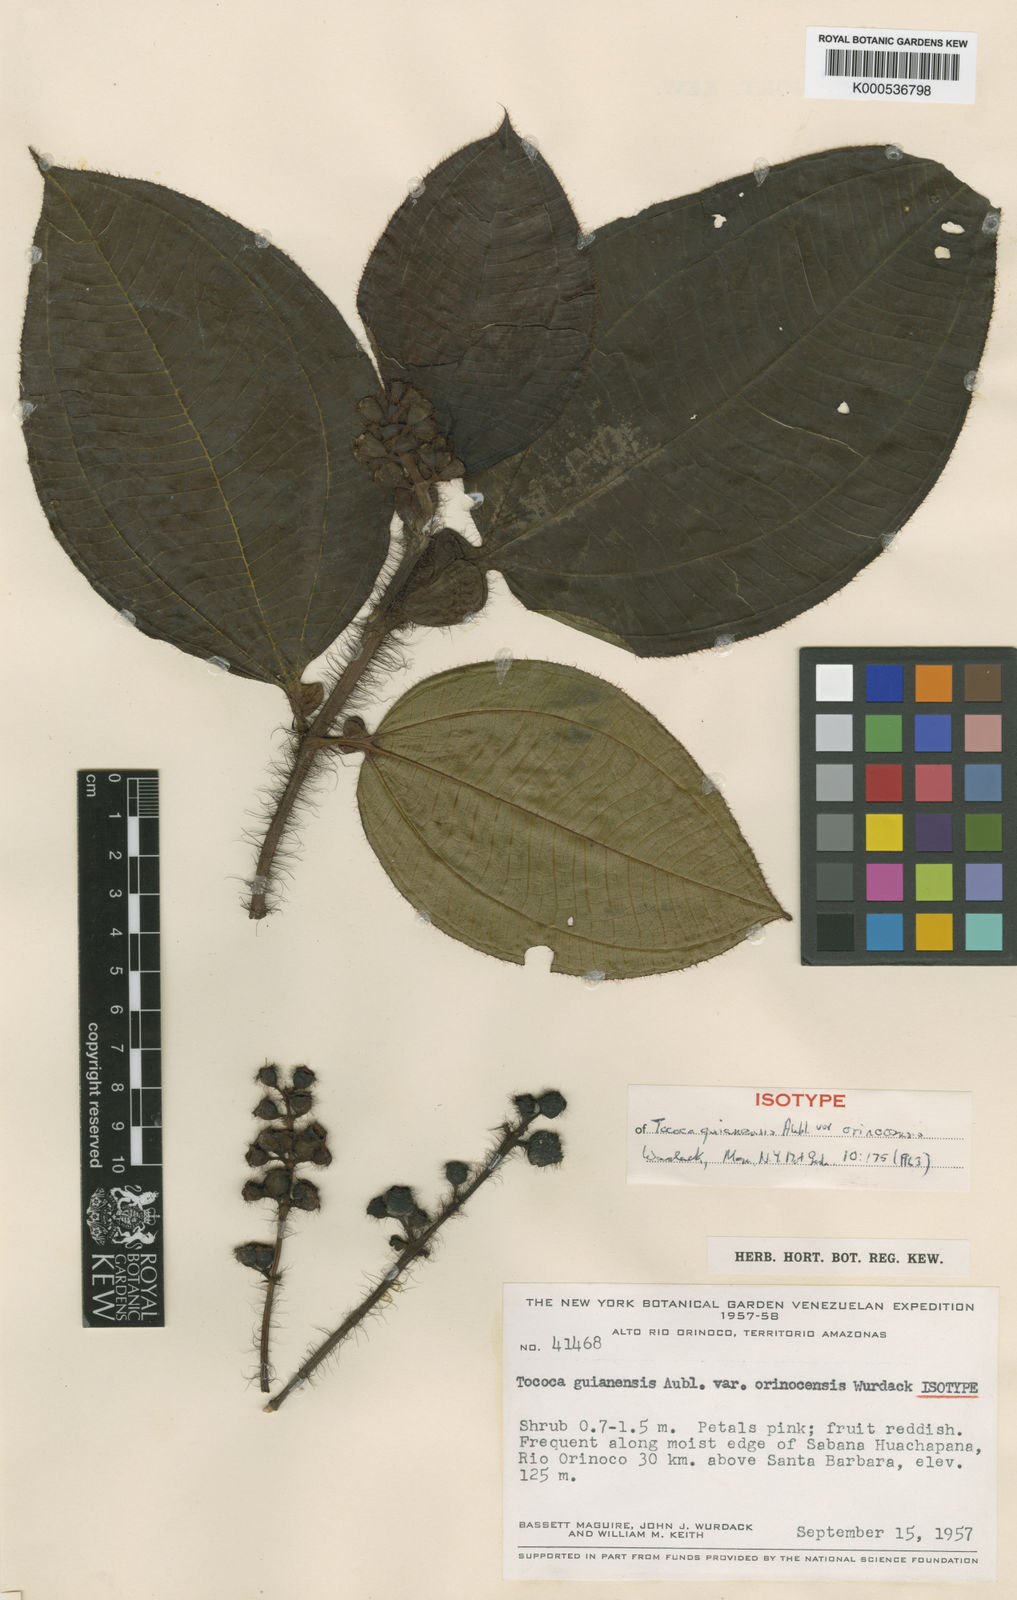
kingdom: Plantae
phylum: Tracheophyta
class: Magnoliopsida
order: Myrtales
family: Melastomataceae
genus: Miconia
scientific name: Miconia tococa
